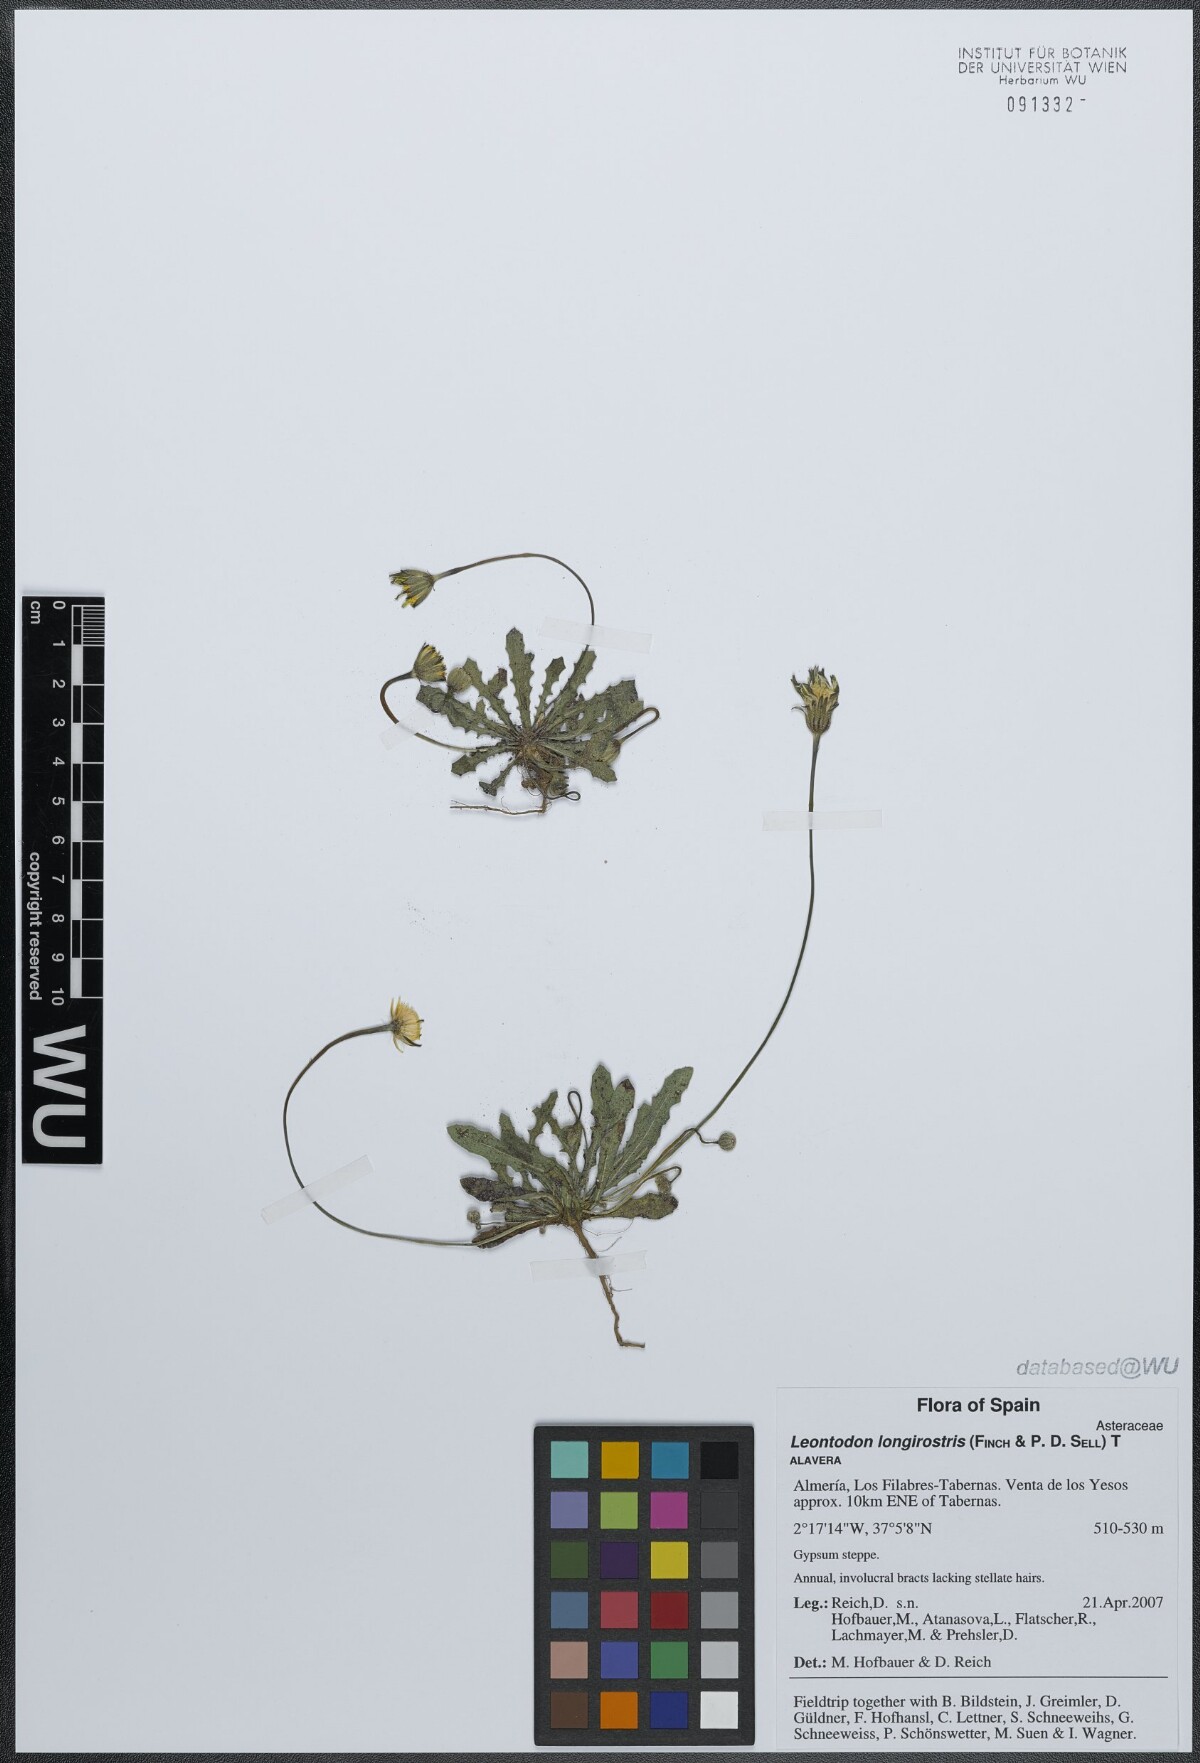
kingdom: Plantae
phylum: Tracheophyta
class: Magnoliopsida
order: Asterales
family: Asteraceae
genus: Thrincia
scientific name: Thrincia hispida
